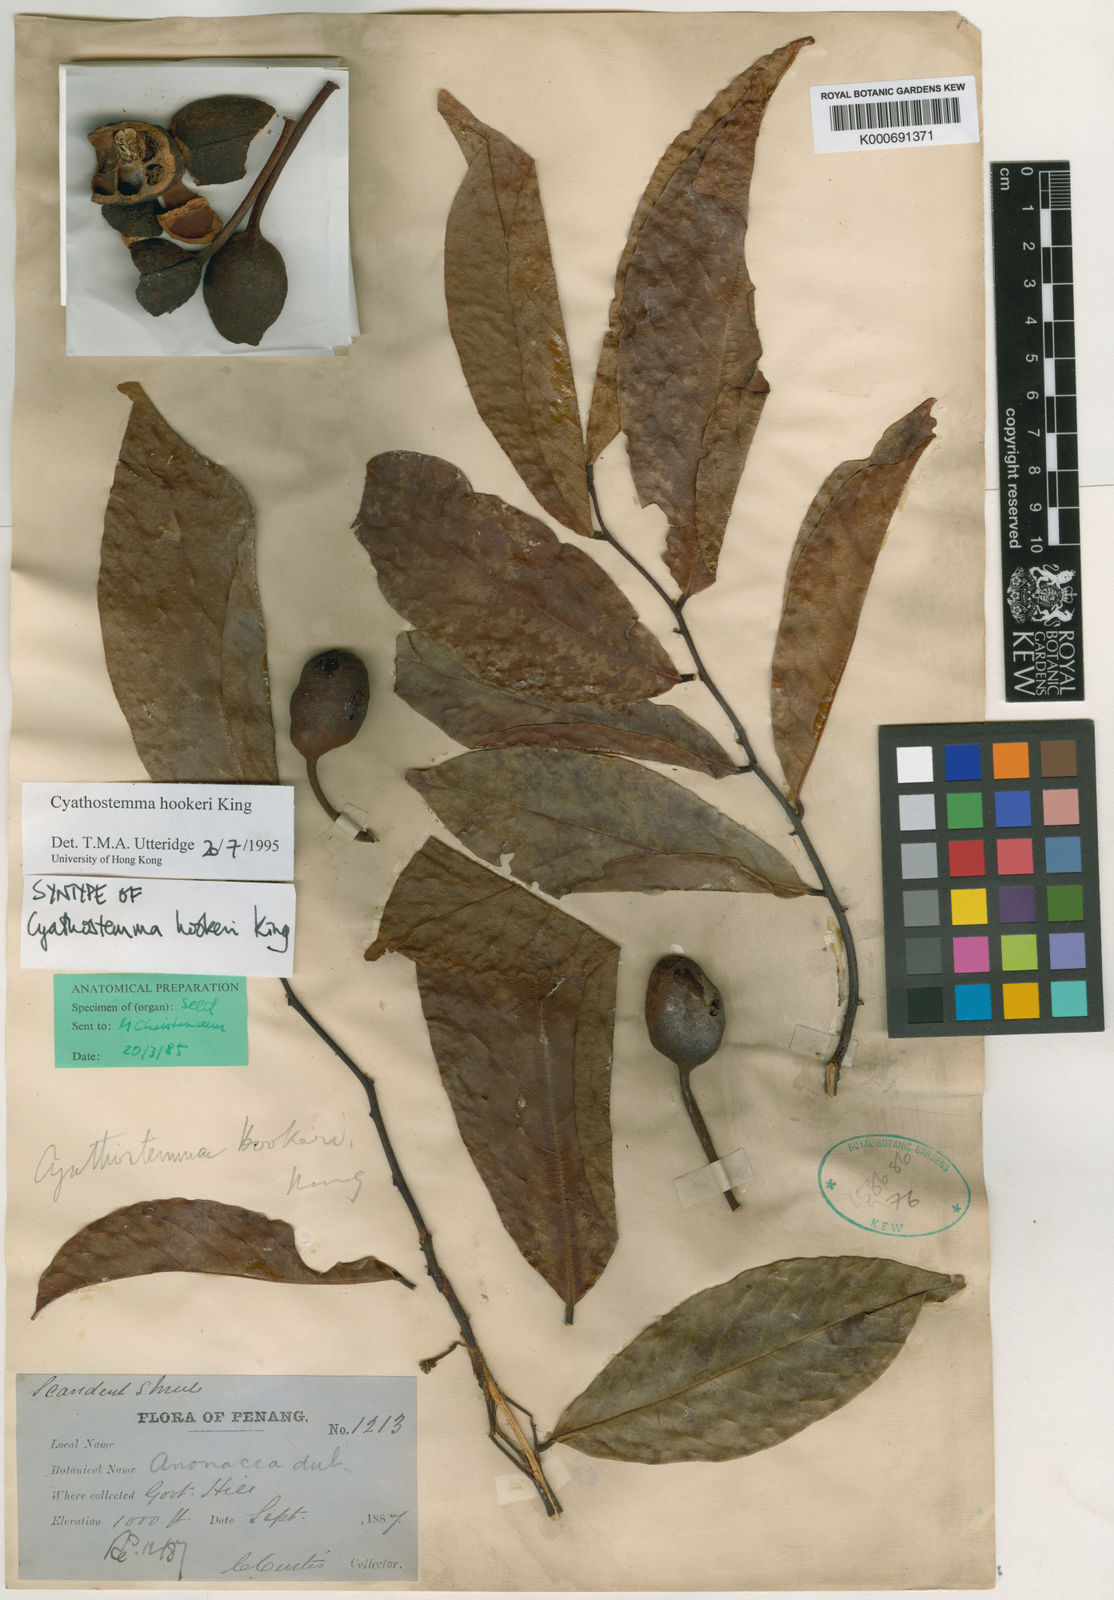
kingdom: Plantae
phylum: Tracheophyta
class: Magnoliopsida
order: Magnoliales
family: Annonaceae
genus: Uvaria
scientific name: Uvaria clementis
